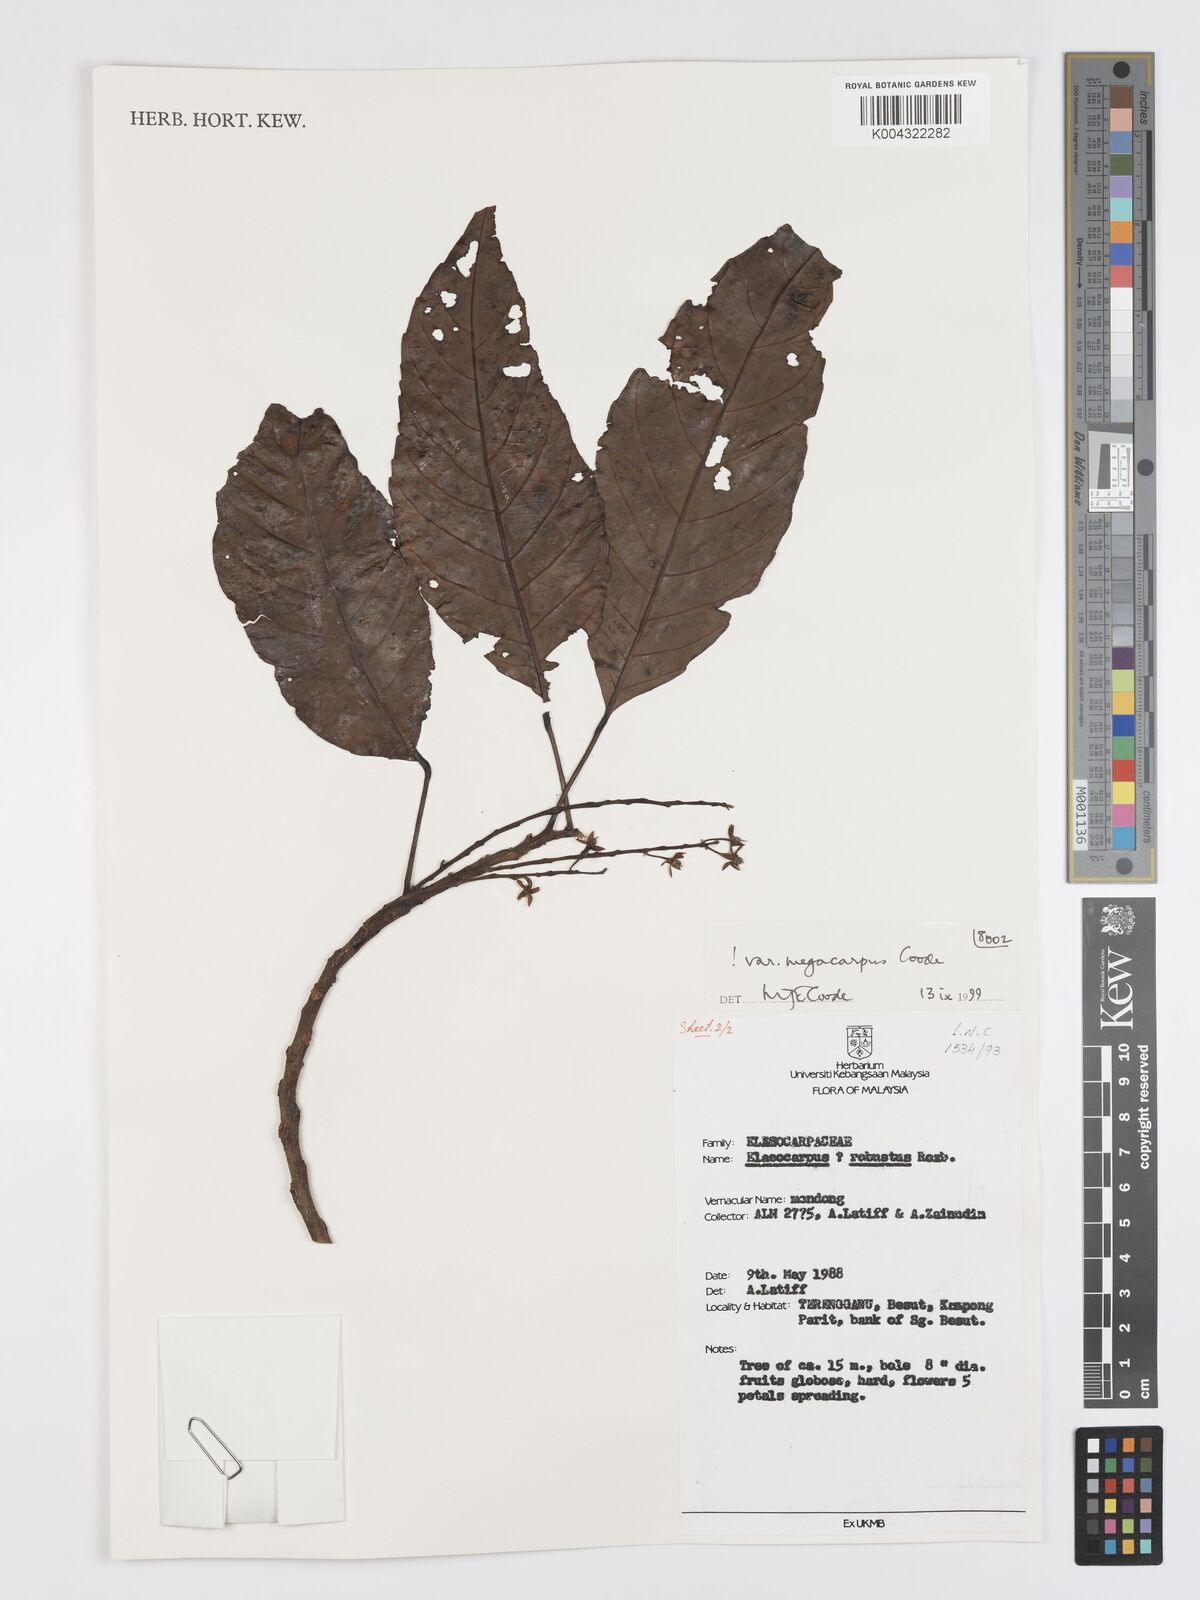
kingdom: Plantae
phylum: Tracheophyta
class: Magnoliopsida
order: Oxalidales
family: Elaeocarpaceae
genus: Elaeocarpus
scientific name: Elaeocarpus robustus
